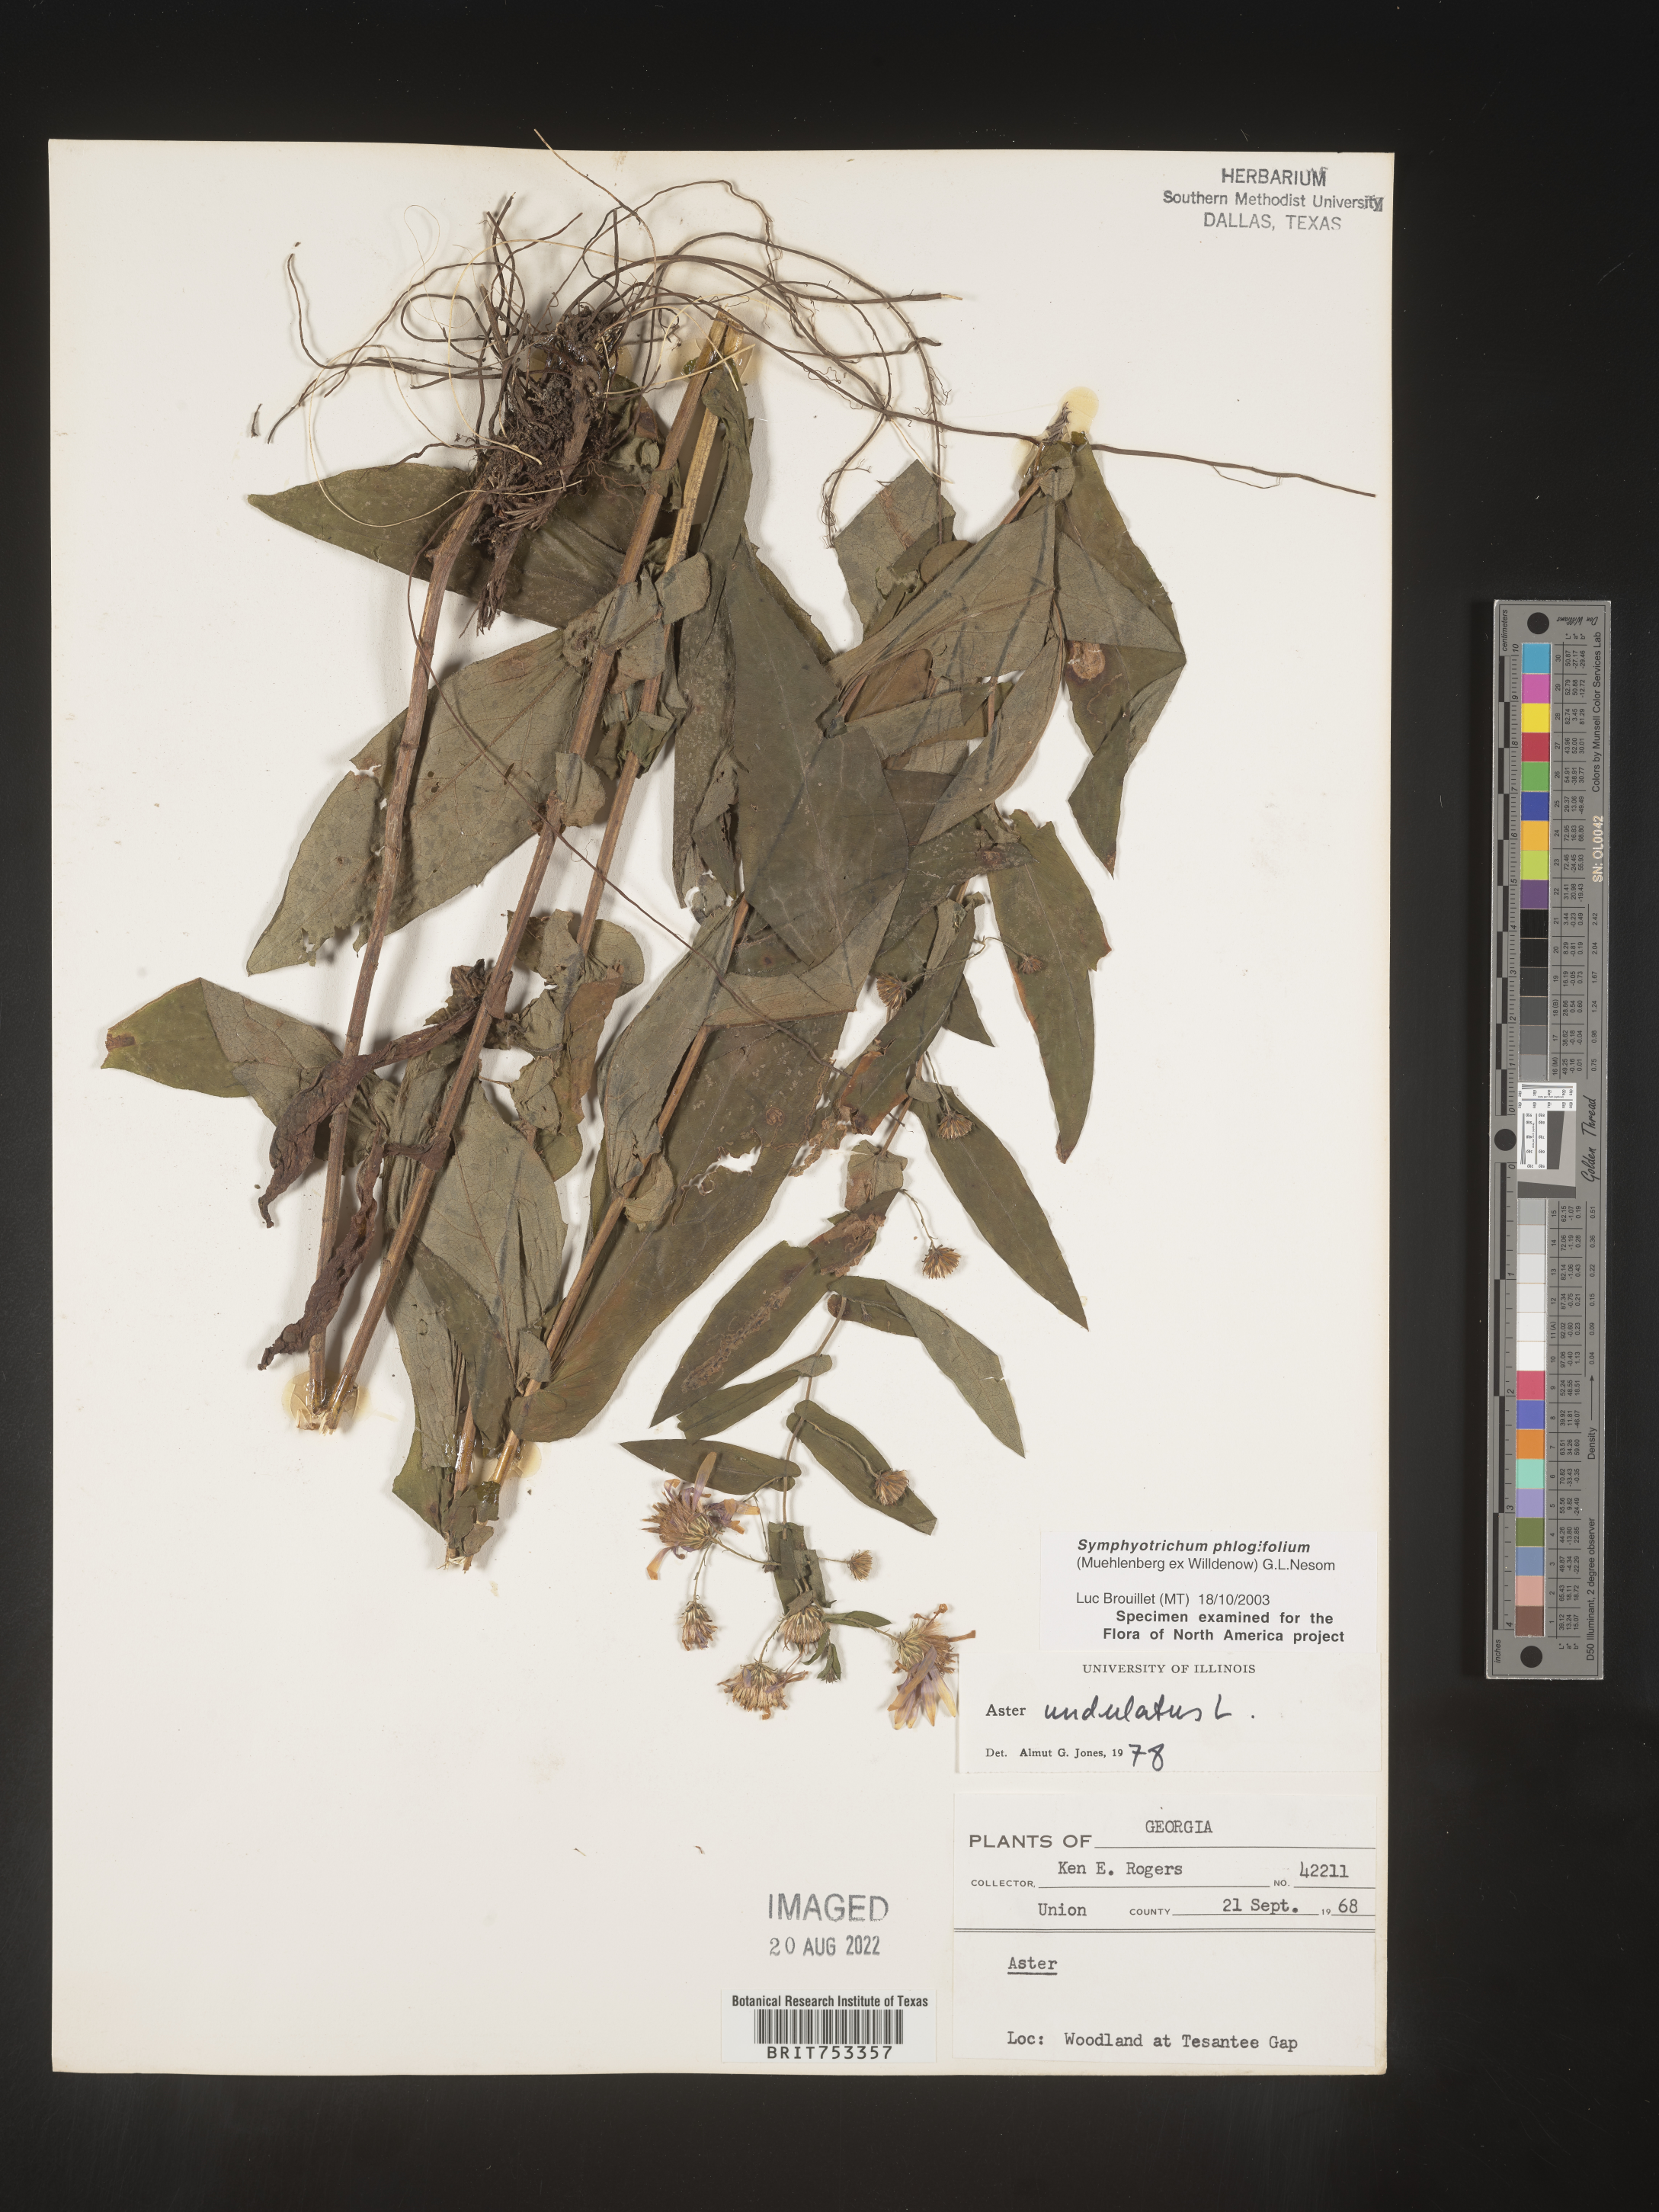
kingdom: Plantae
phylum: Tracheophyta
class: Magnoliopsida
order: Asterales
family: Asteraceae
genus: Symphyotrichum
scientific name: Symphyotrichum phlogifolium
